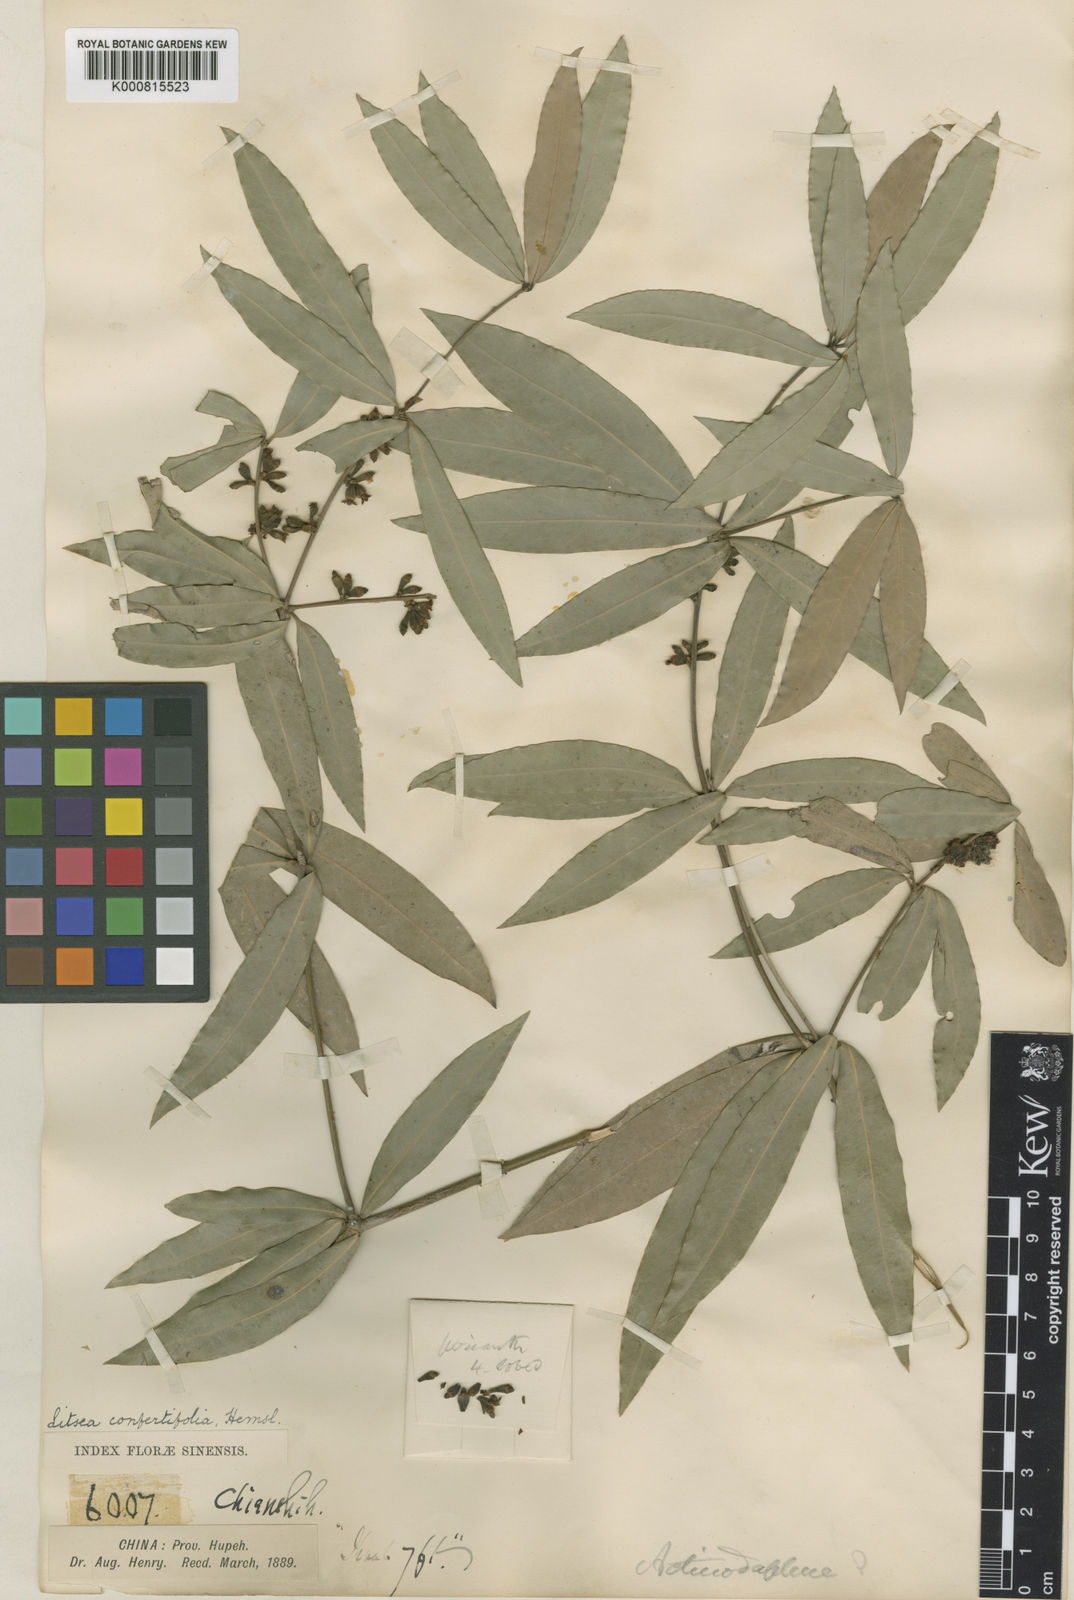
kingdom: Plantae
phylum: Tracheophyta
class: Magnoliopsida
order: Laurales
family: Lauraceae
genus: Neolitsea
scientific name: Neolitsea confertifolia
